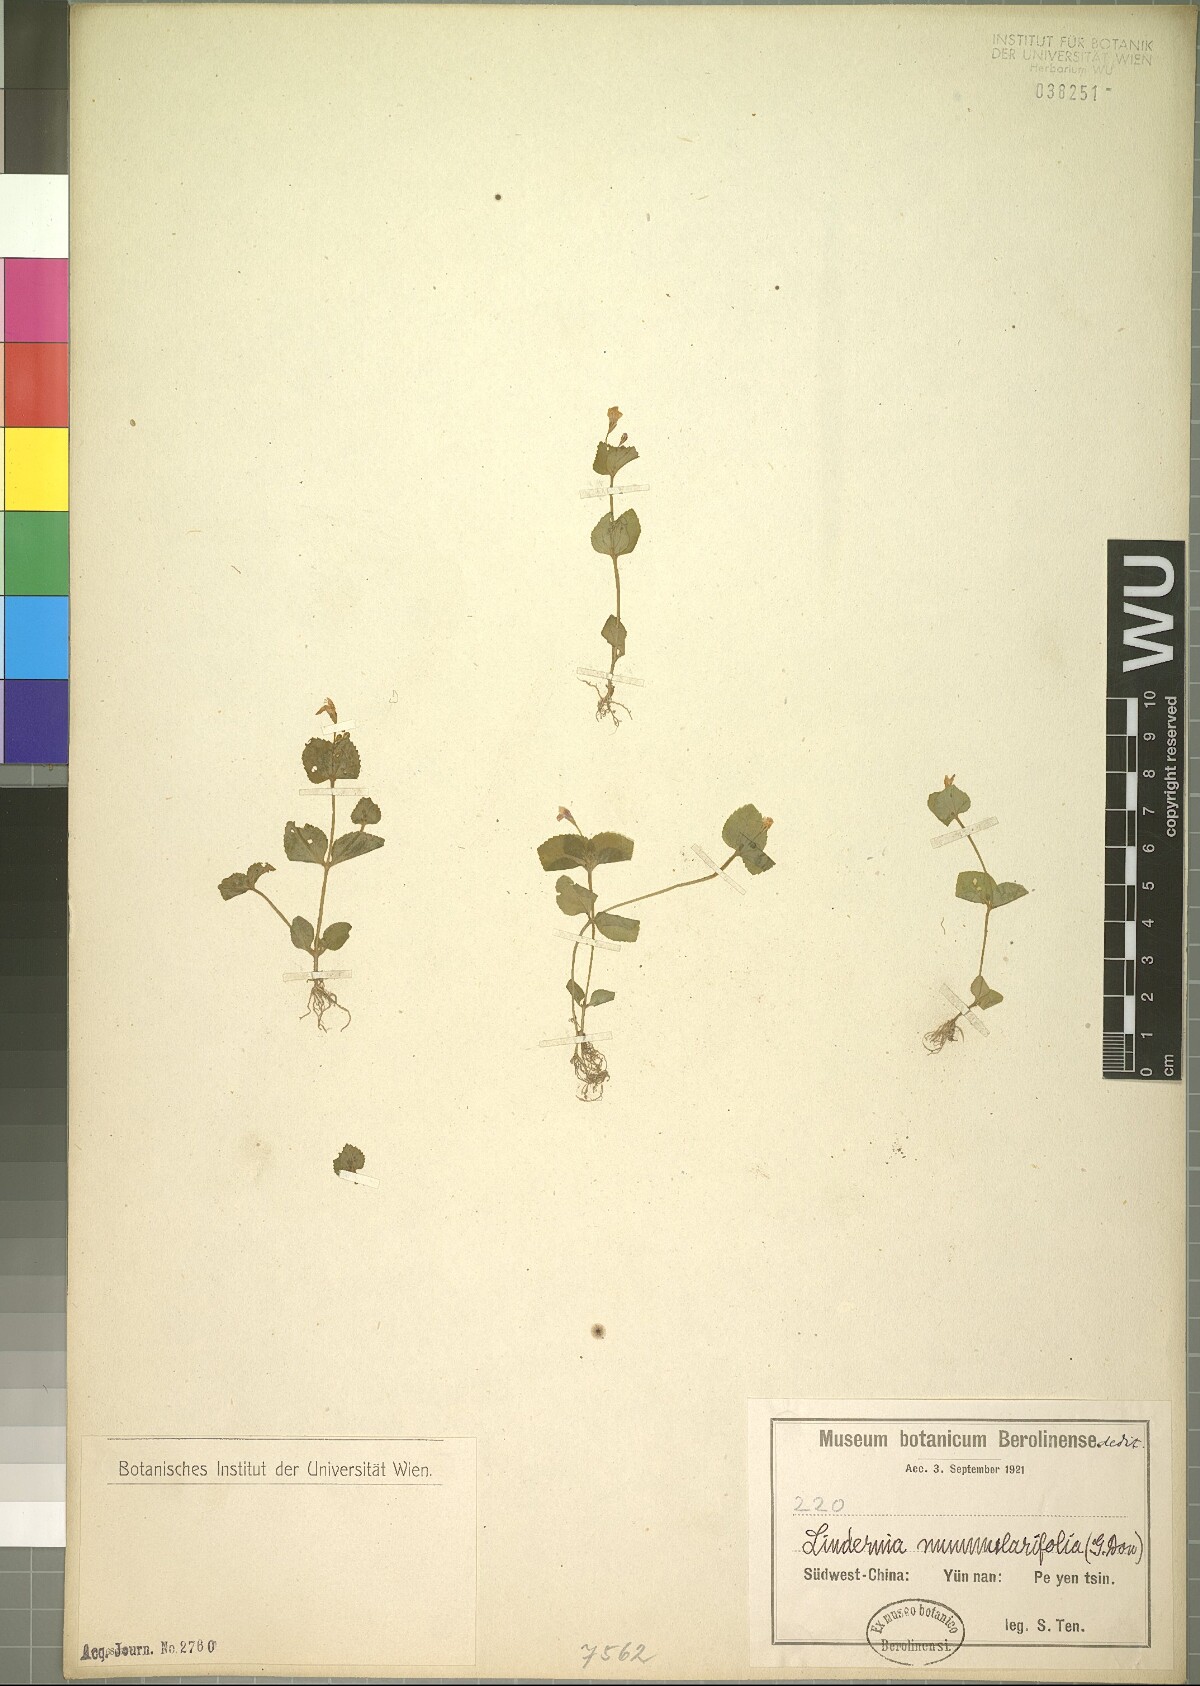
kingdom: Plantae
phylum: Tracheophyta
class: Magnoliopsida
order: Lamiales
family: Linderniaceae
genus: Craterostigma
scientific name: Craterostigma nummulariifolium
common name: False pimpernel
